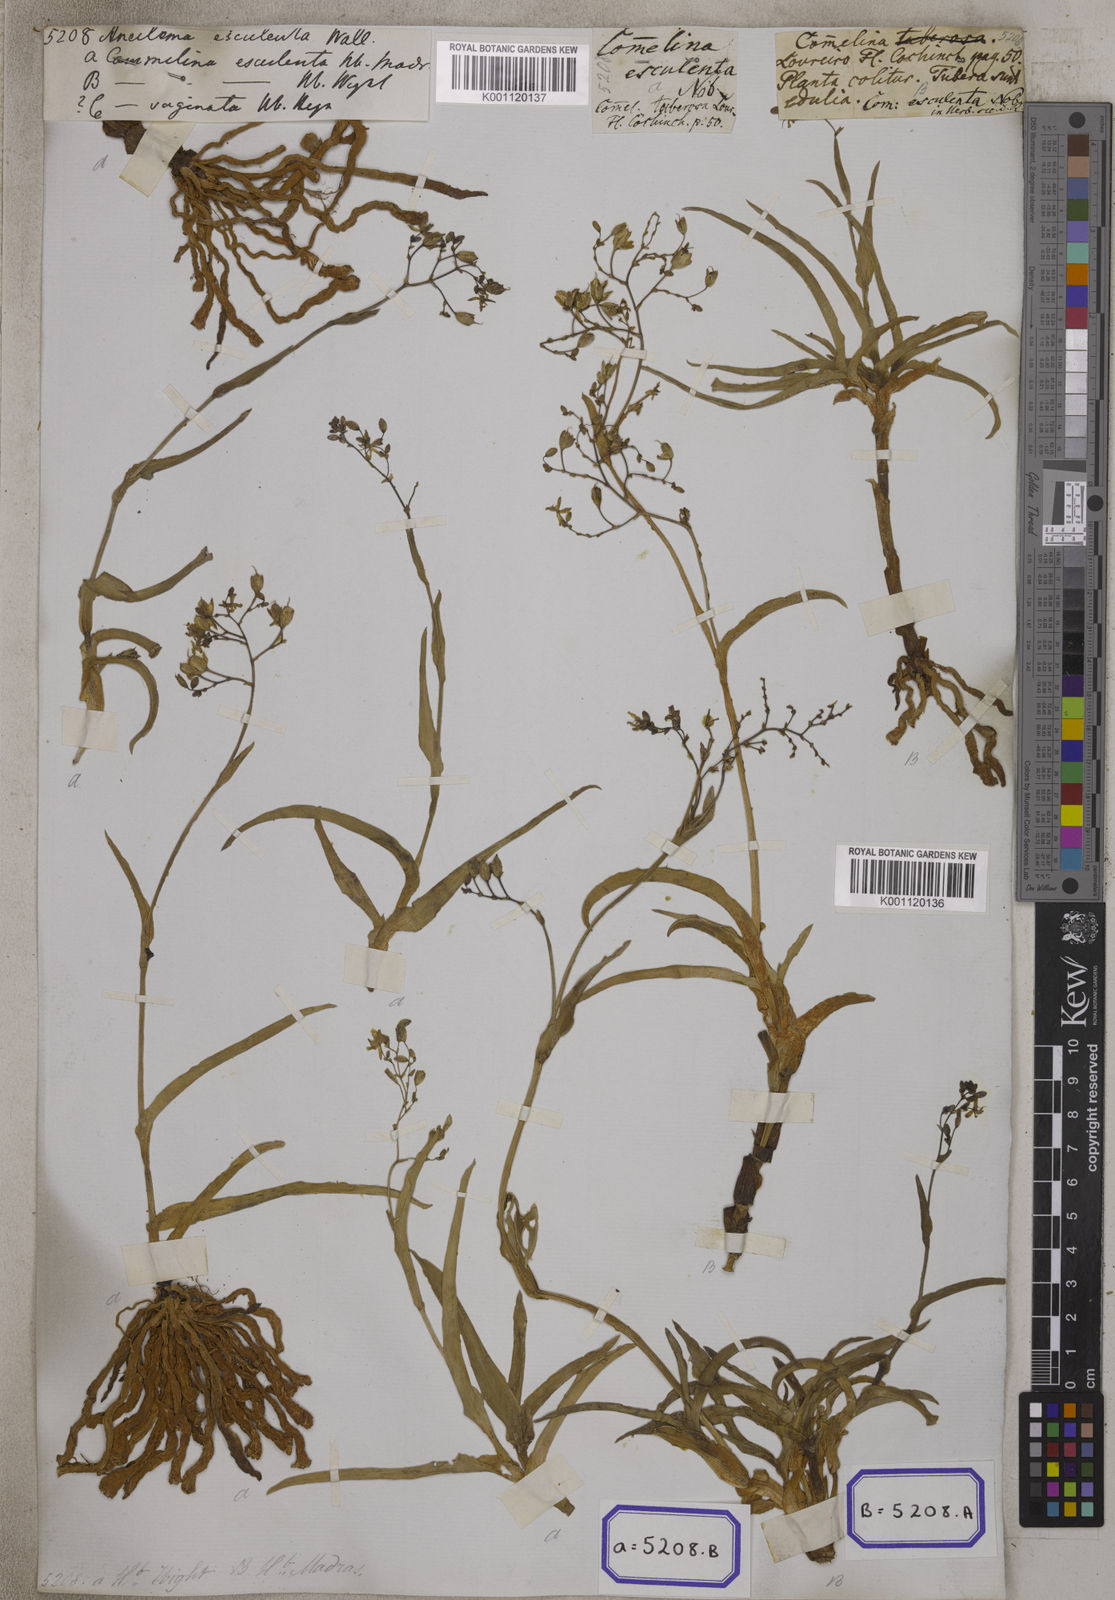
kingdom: Plantae
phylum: Tracheophyta
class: Liliopsida
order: Commelinales
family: Commelinaceae
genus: Aneilema
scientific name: Aneilema
